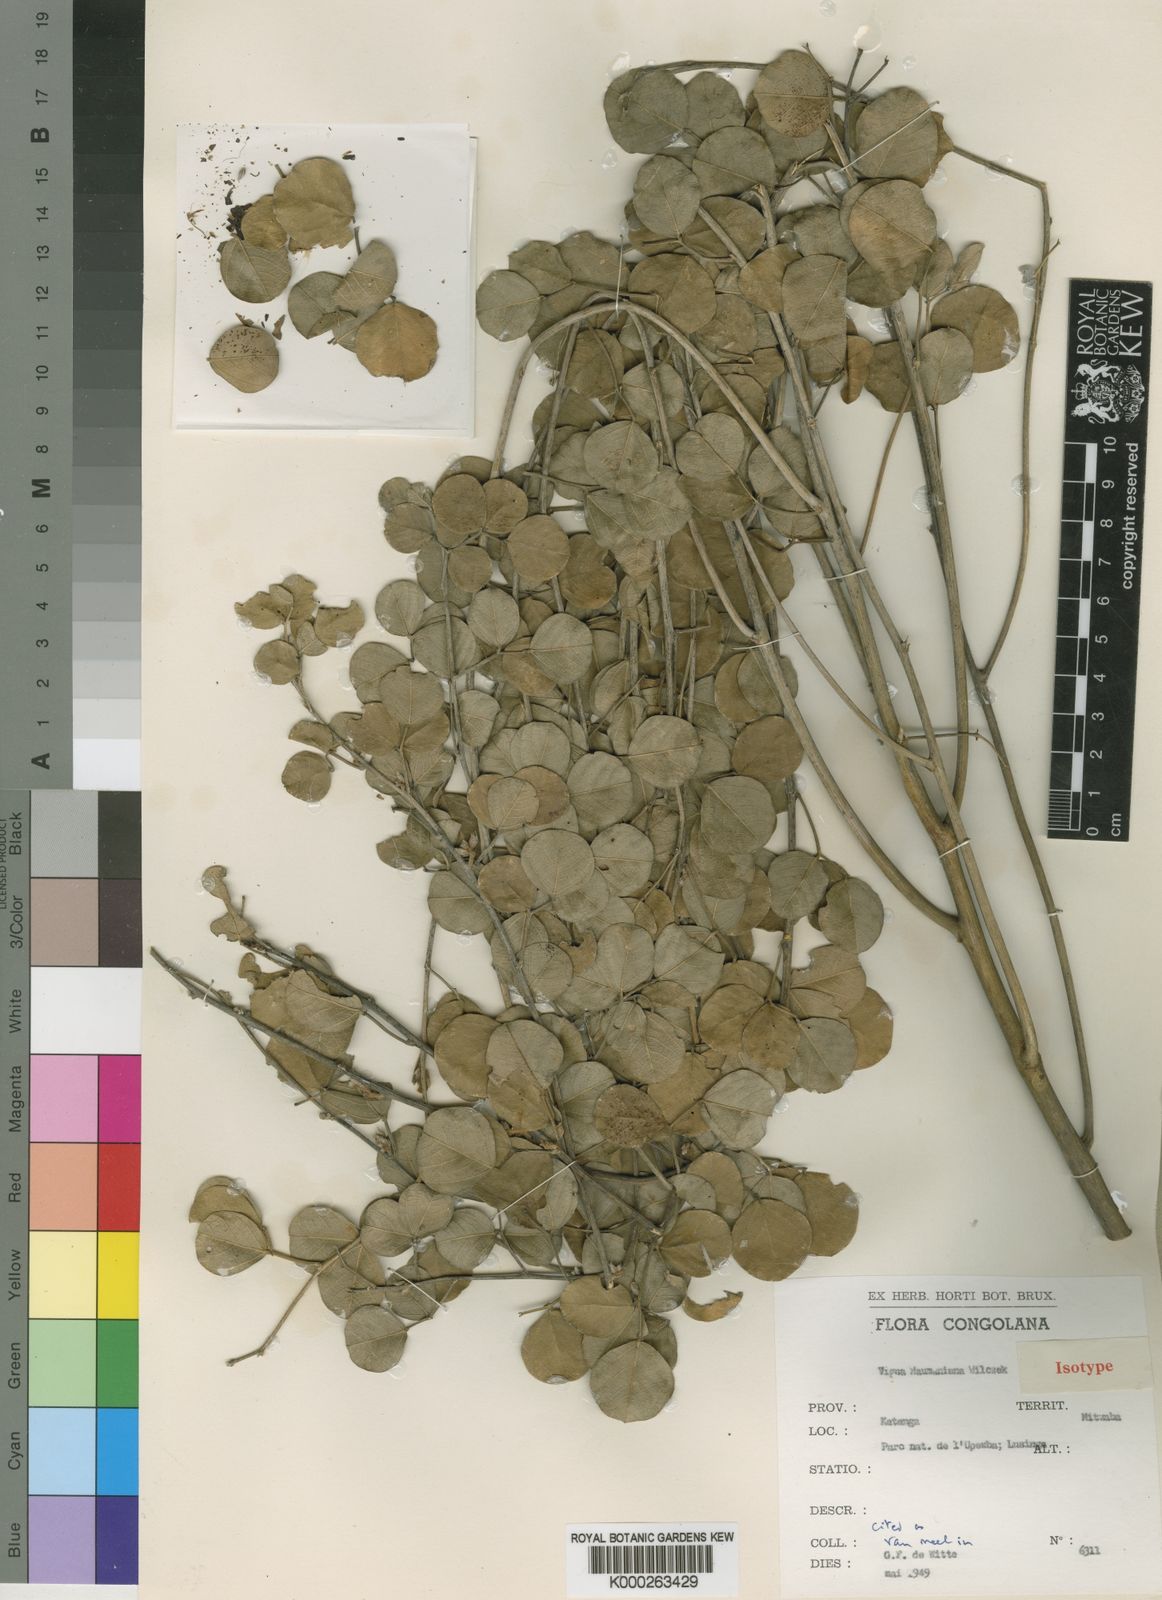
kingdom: Plantae
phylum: Tracheophyta
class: Magnoliopsida
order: Fabales
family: Fabaceae
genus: Vigna
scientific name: Vigna
